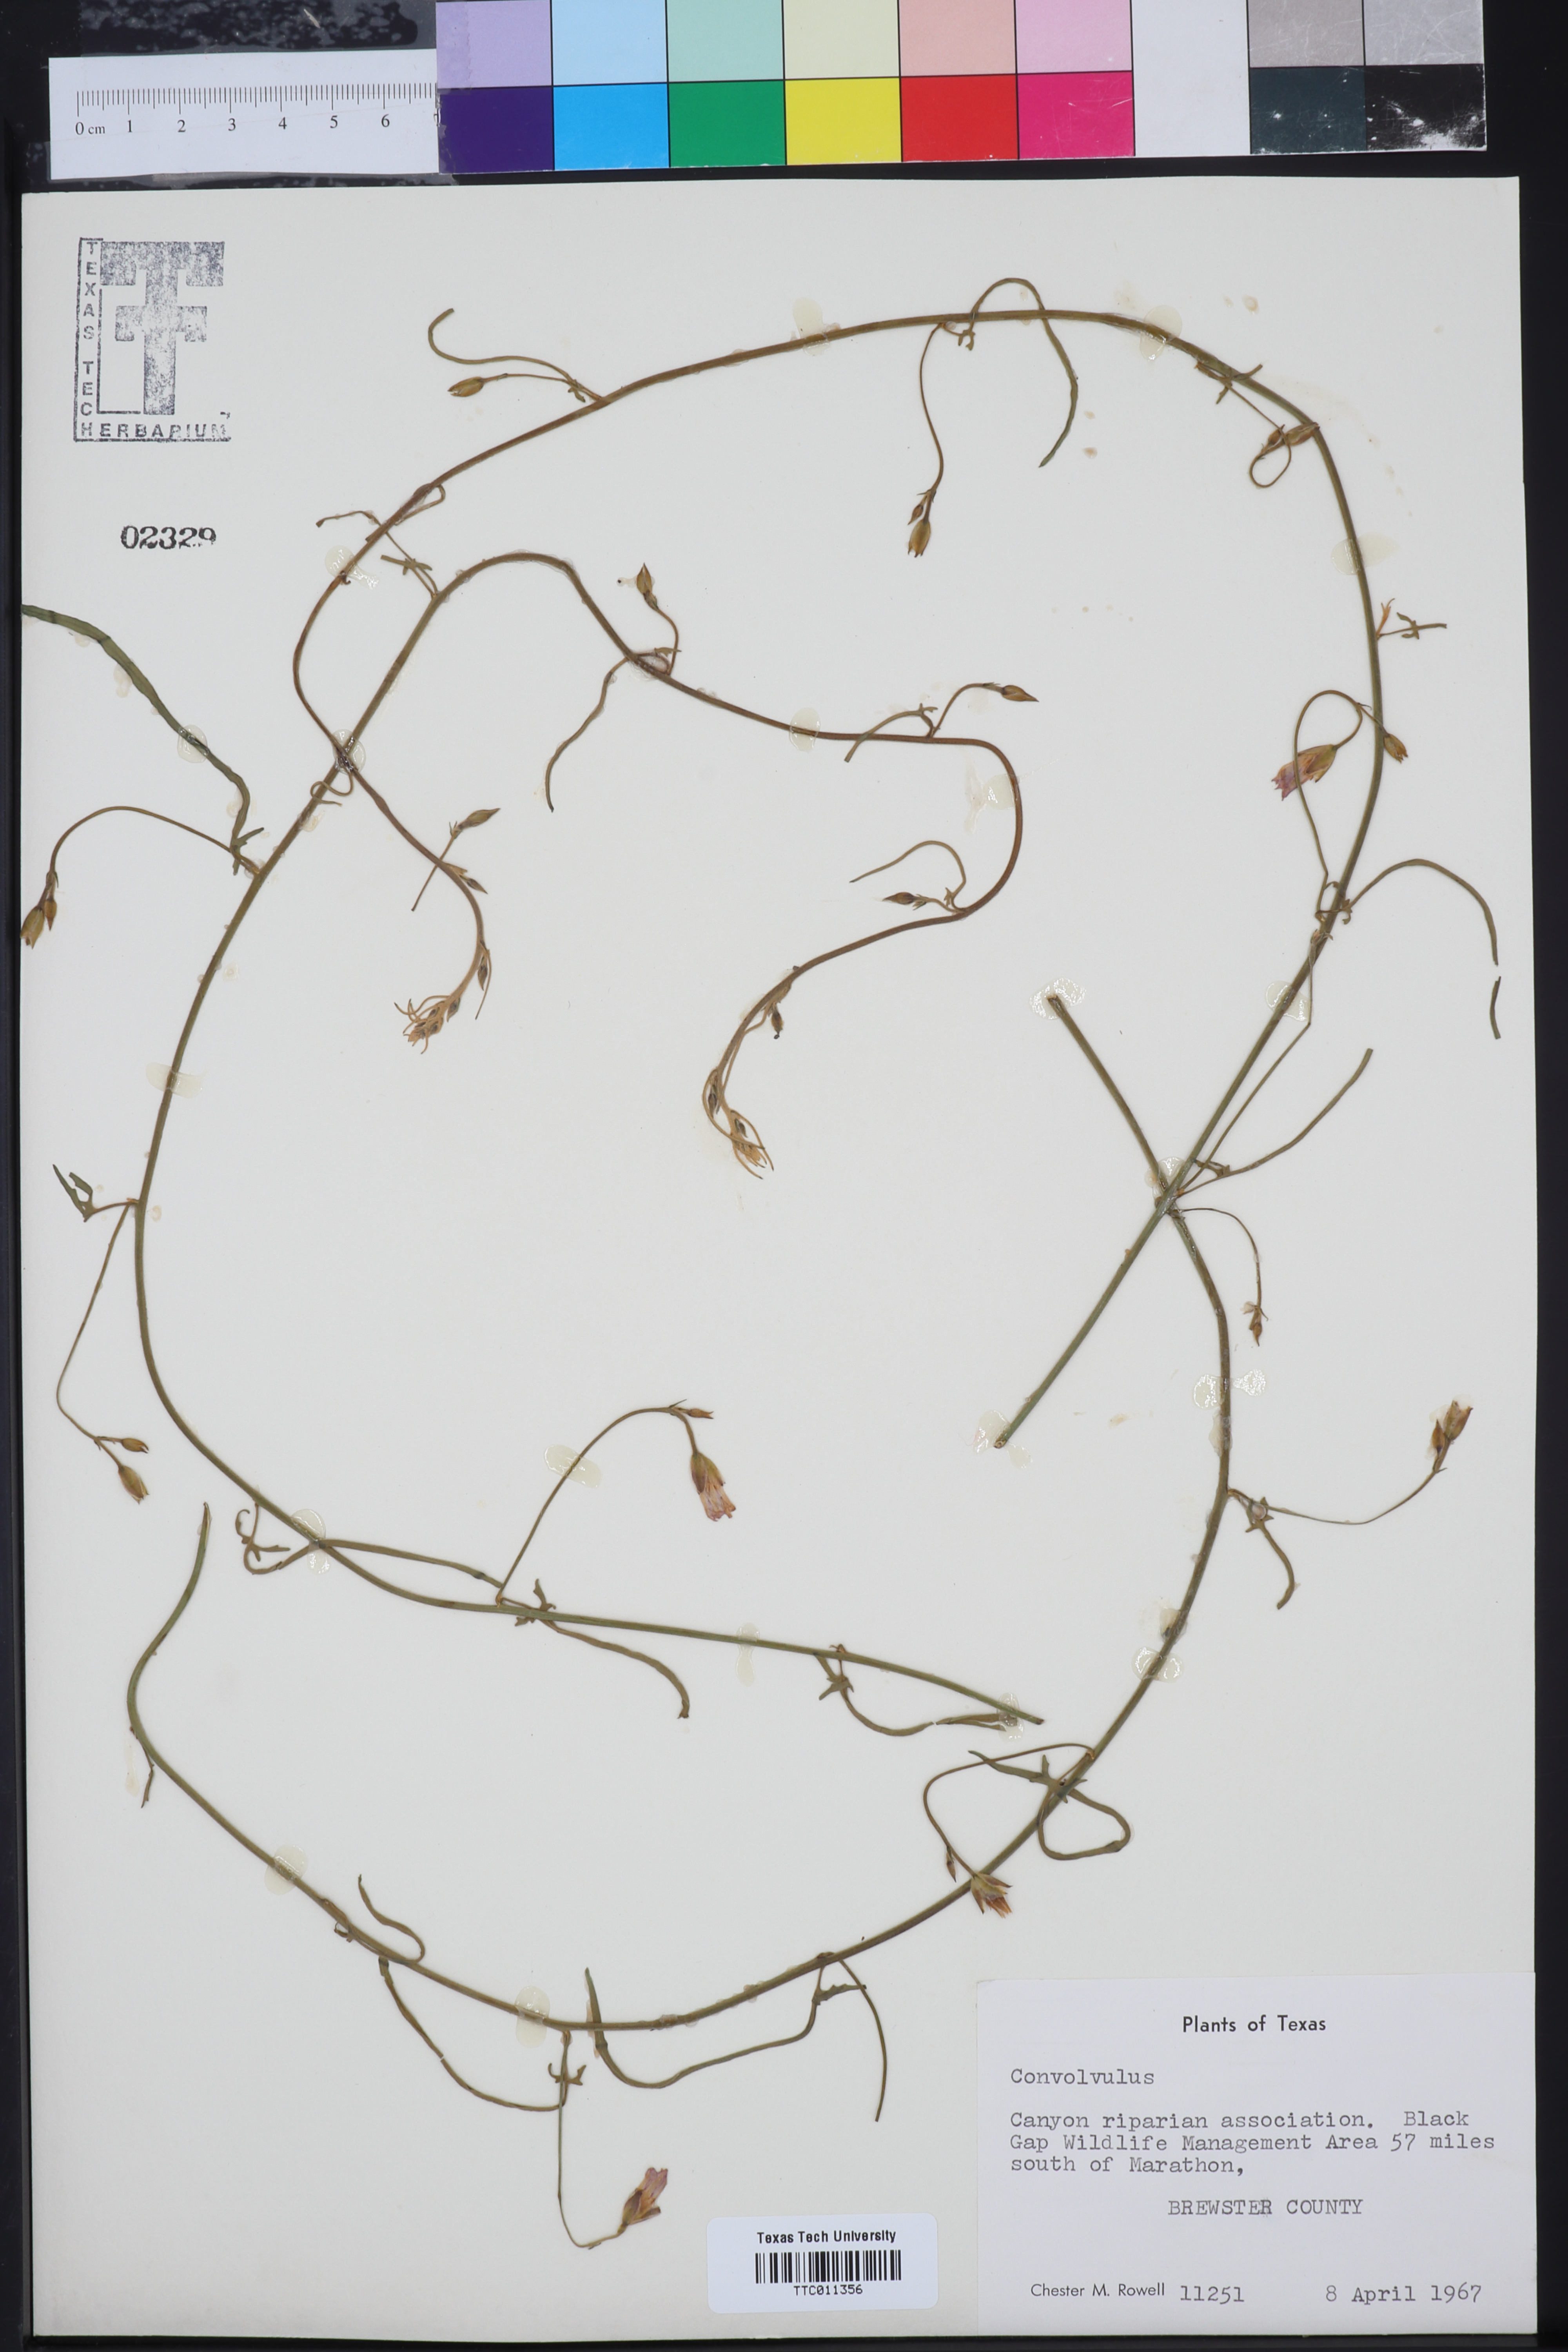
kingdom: Plantae
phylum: Tracheophyta
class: Magnoliopsida
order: Solanales
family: Convolvulaceae
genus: Convolvulus
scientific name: Convolvulus
